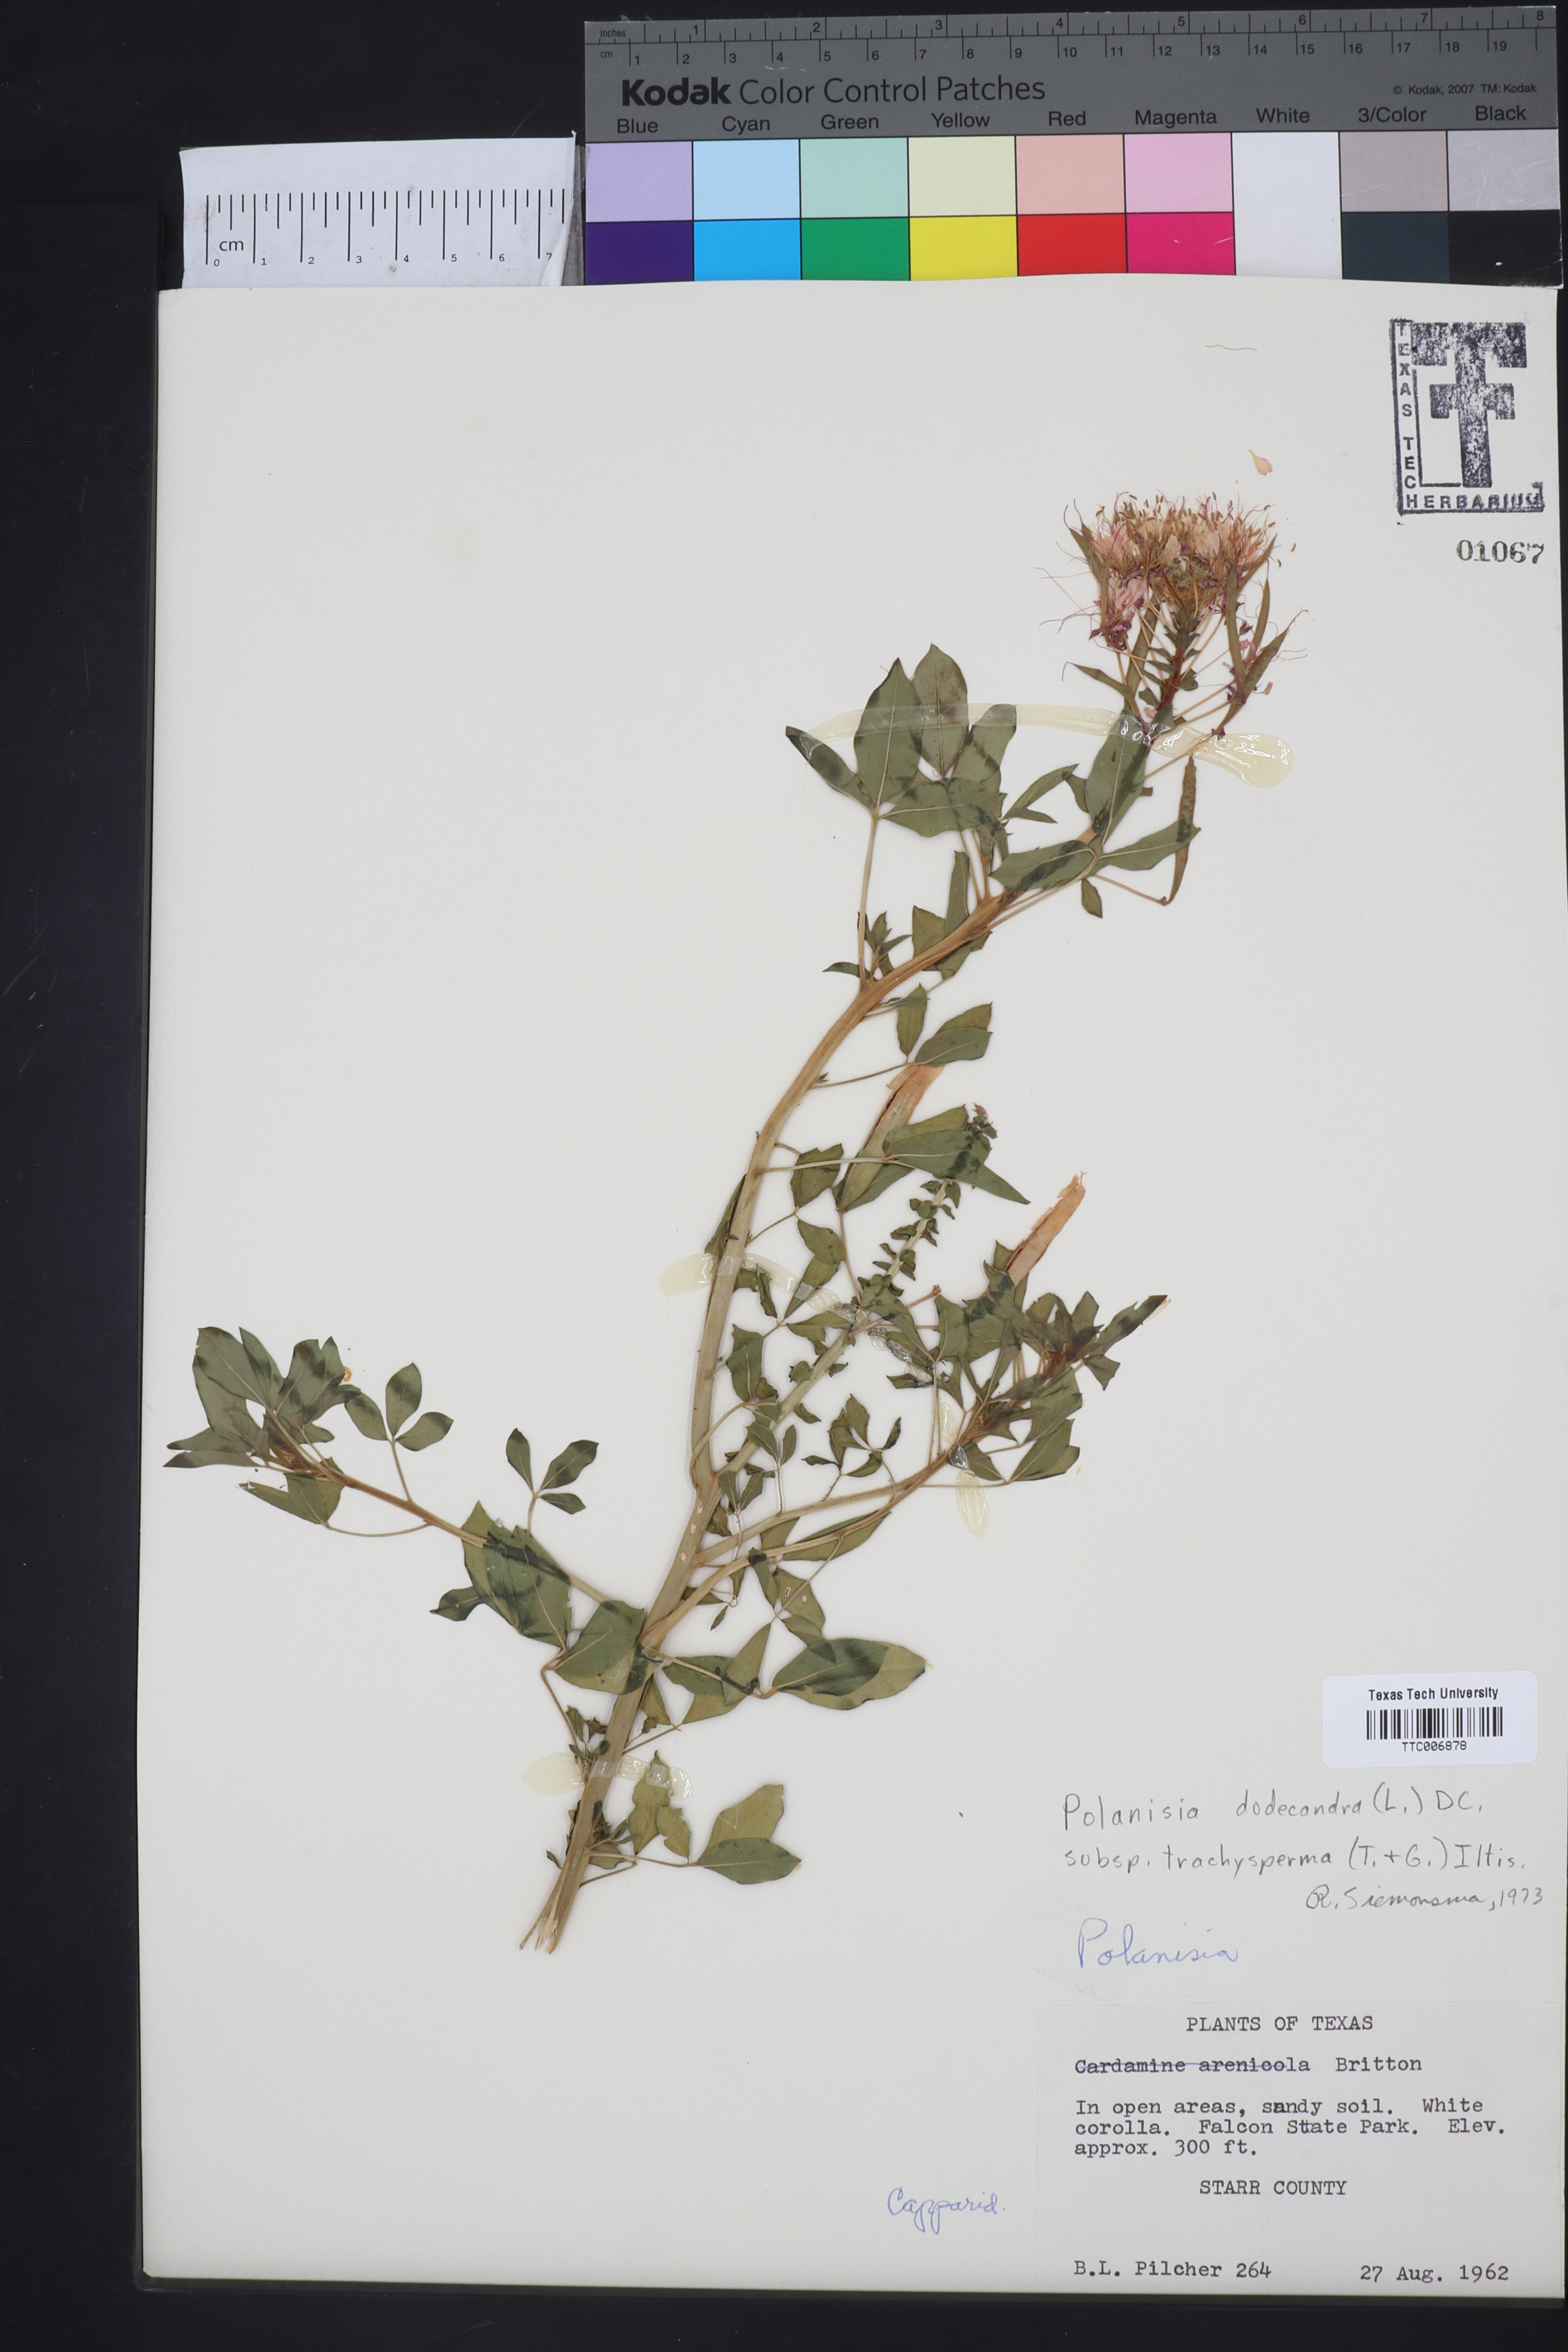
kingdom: Plantae
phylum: Tracheophyta
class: Magnoliopsida
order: Brassicales
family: Cleomaceae
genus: Polanisia
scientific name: Polanisia trachysperma
